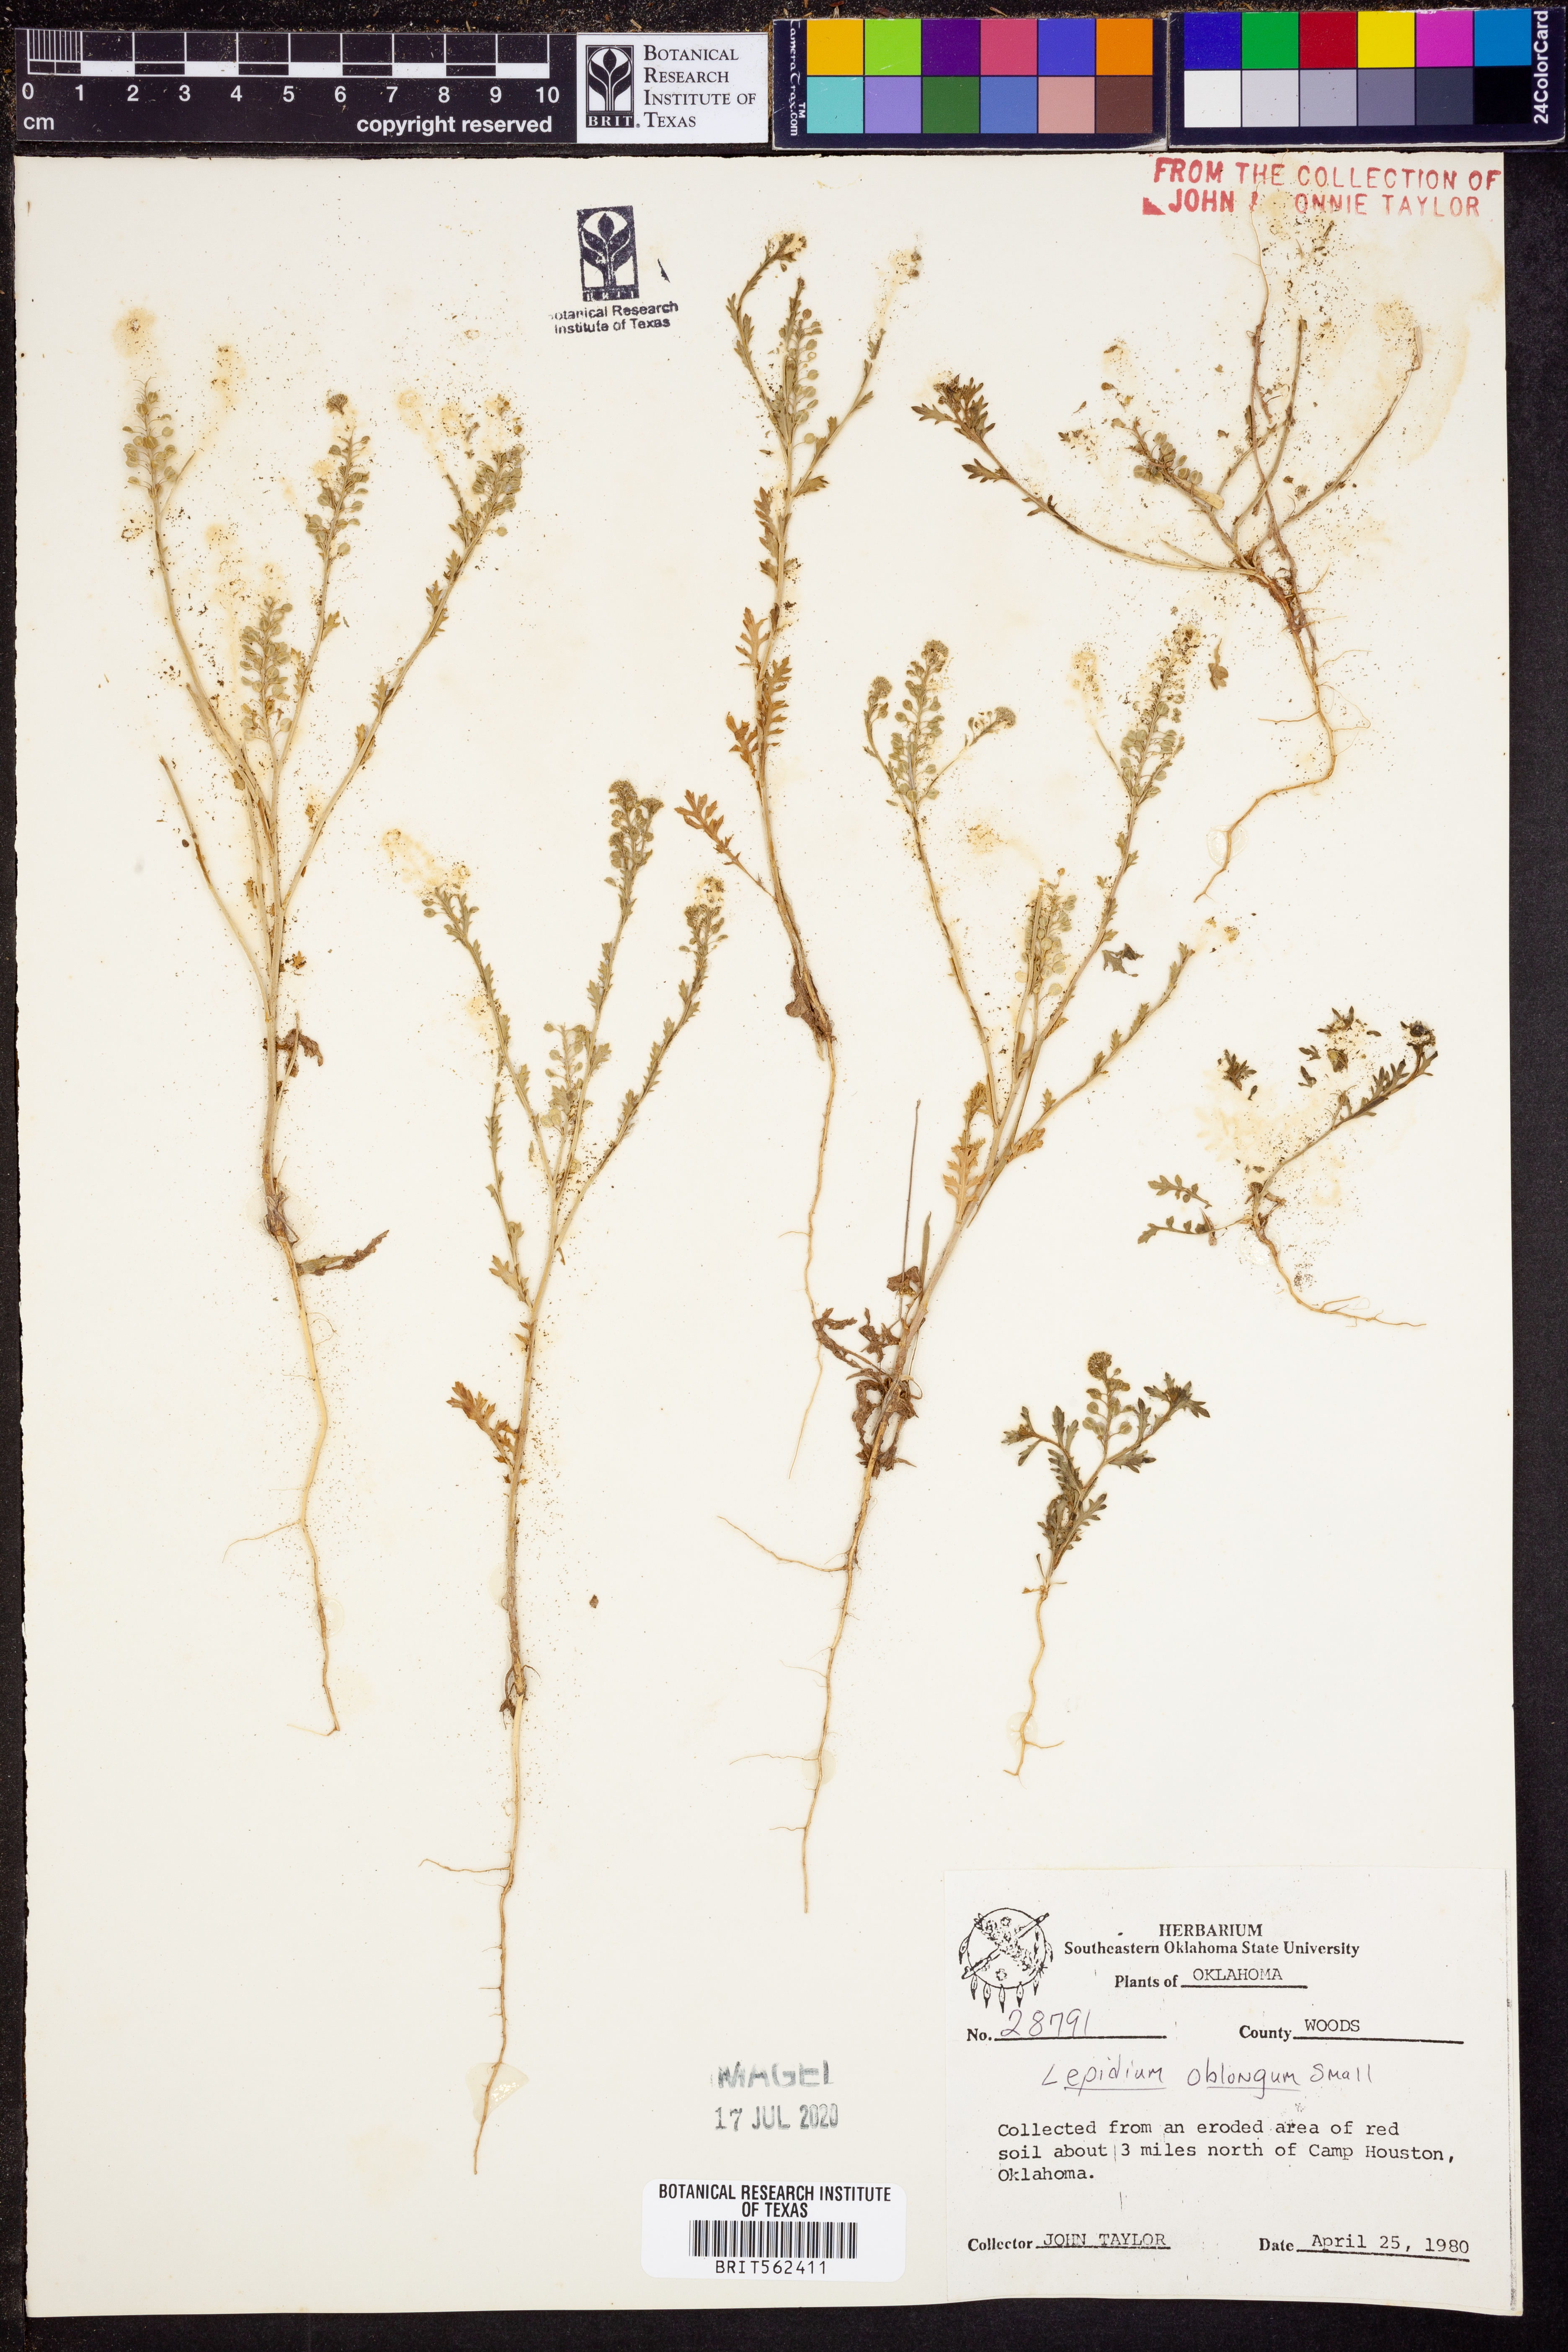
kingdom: Plantae
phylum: Tracheophyta
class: Magnoliopsida
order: Brassicales
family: Brassicaceae
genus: Lepidium
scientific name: Lepidium oblongum
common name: Veiny pepperweed
